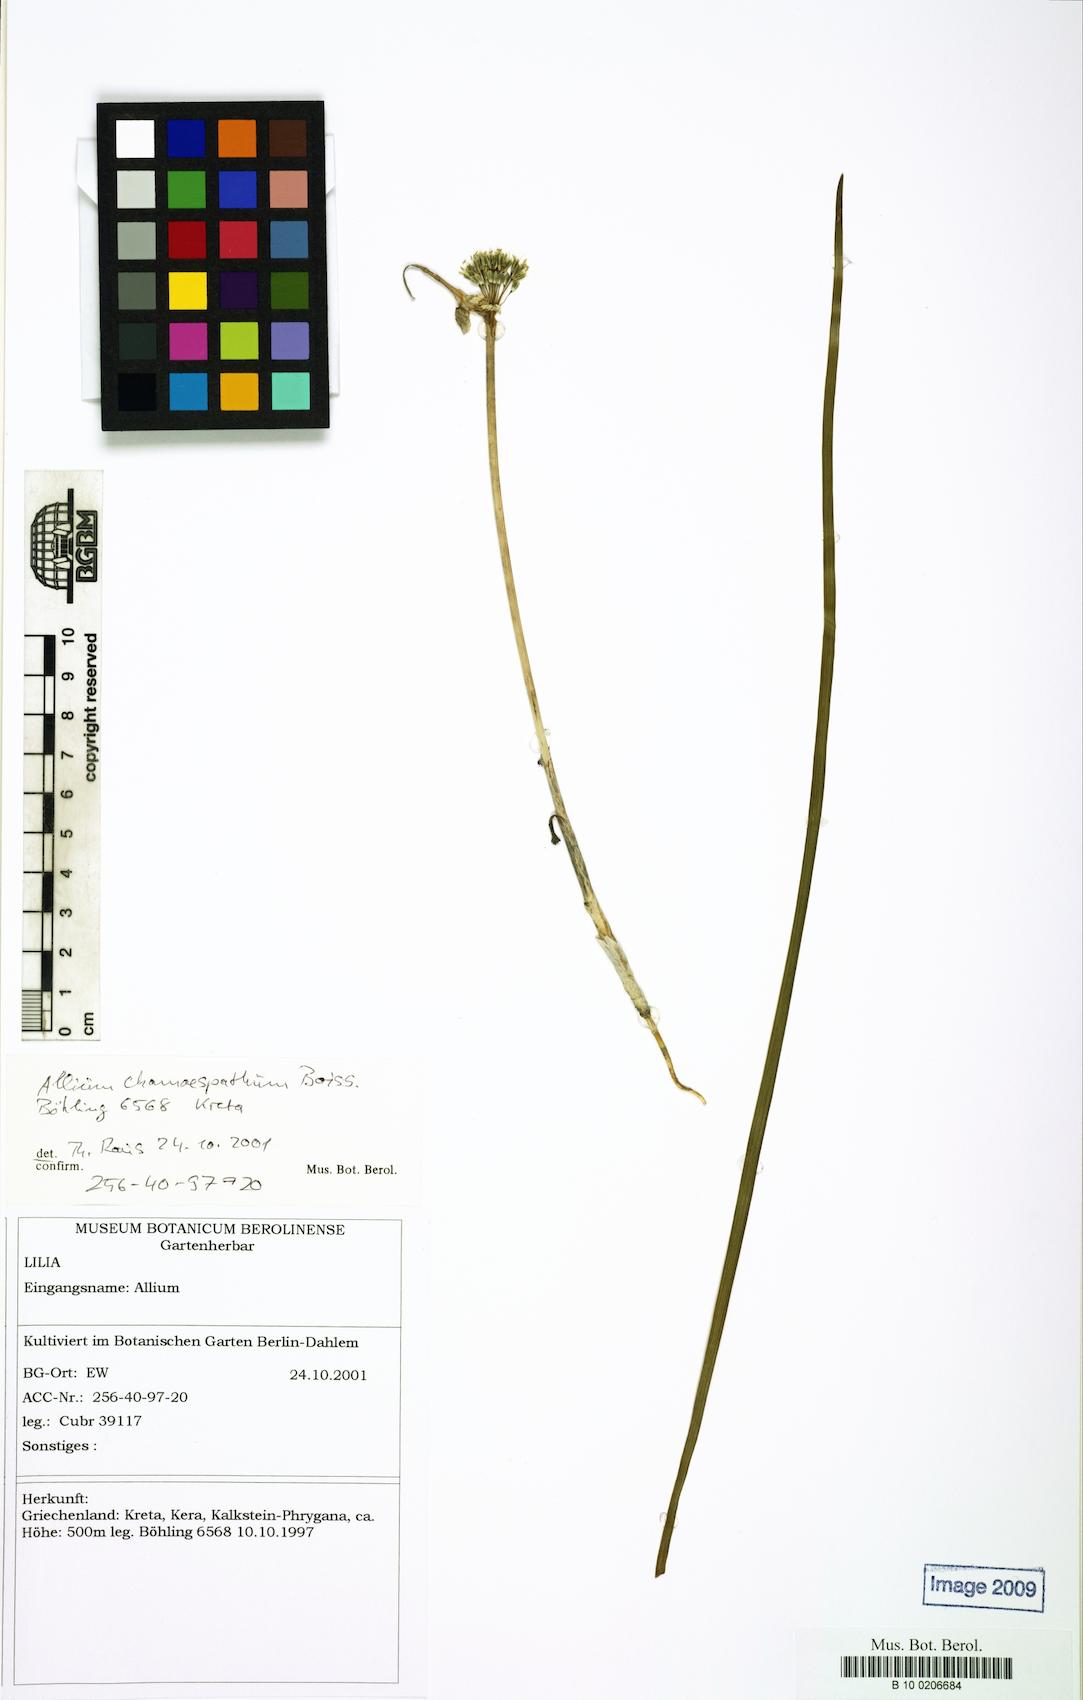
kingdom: Plantae
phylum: Tracheophyta
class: Liliopsida
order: Asparagales
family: Amaryllidaceae
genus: Allium
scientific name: Allium chamaespathum
